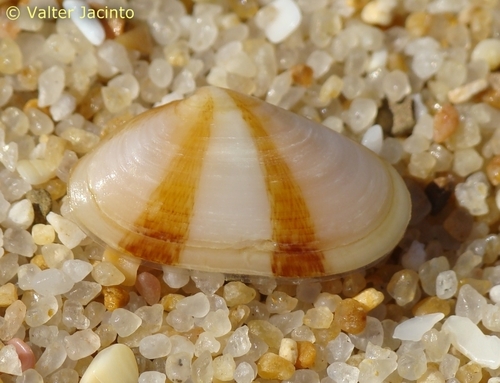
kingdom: Animalia
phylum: Mollusca
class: Bivalvia
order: Venerida
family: Mesodesmatidae
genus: Donacilla
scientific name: Donacilla cornea
